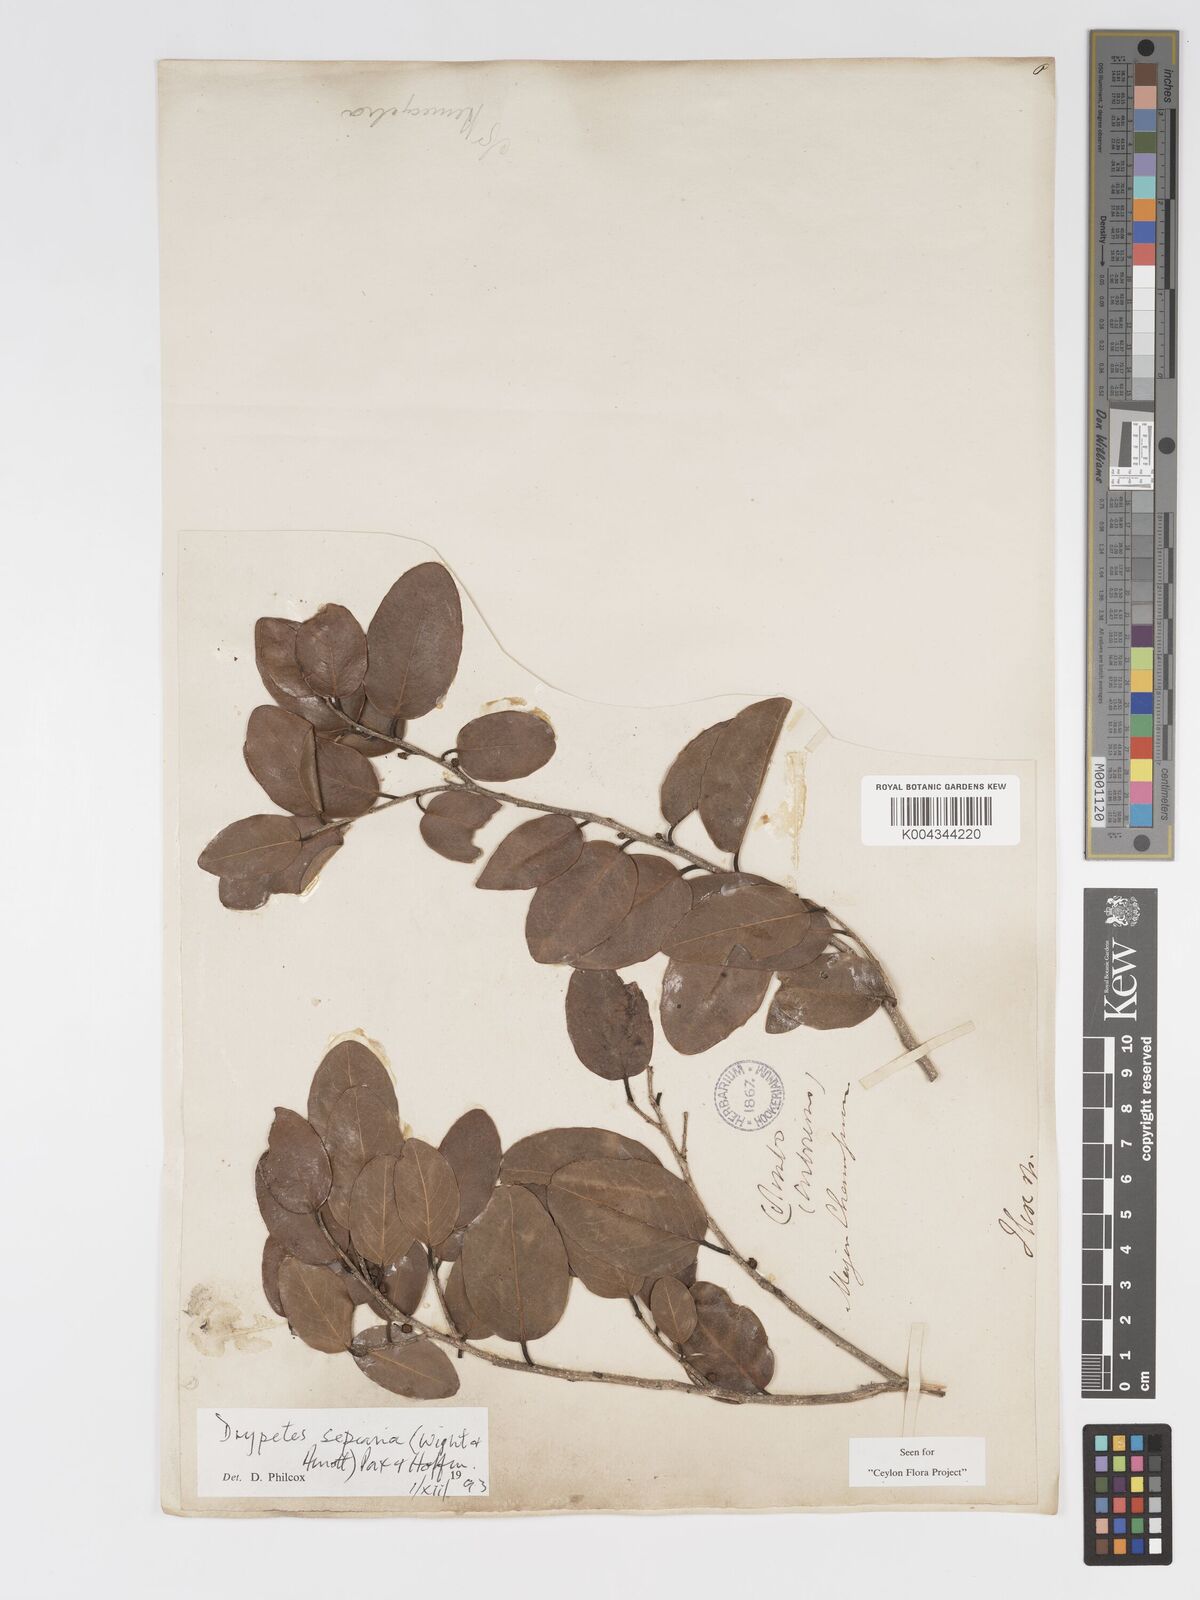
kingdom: Plantae
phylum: Tracheophyta
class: Magnoliopsida
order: Malpighiales
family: Putranjivaceae
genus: Drypetes
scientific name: Drypetes sepiaria
